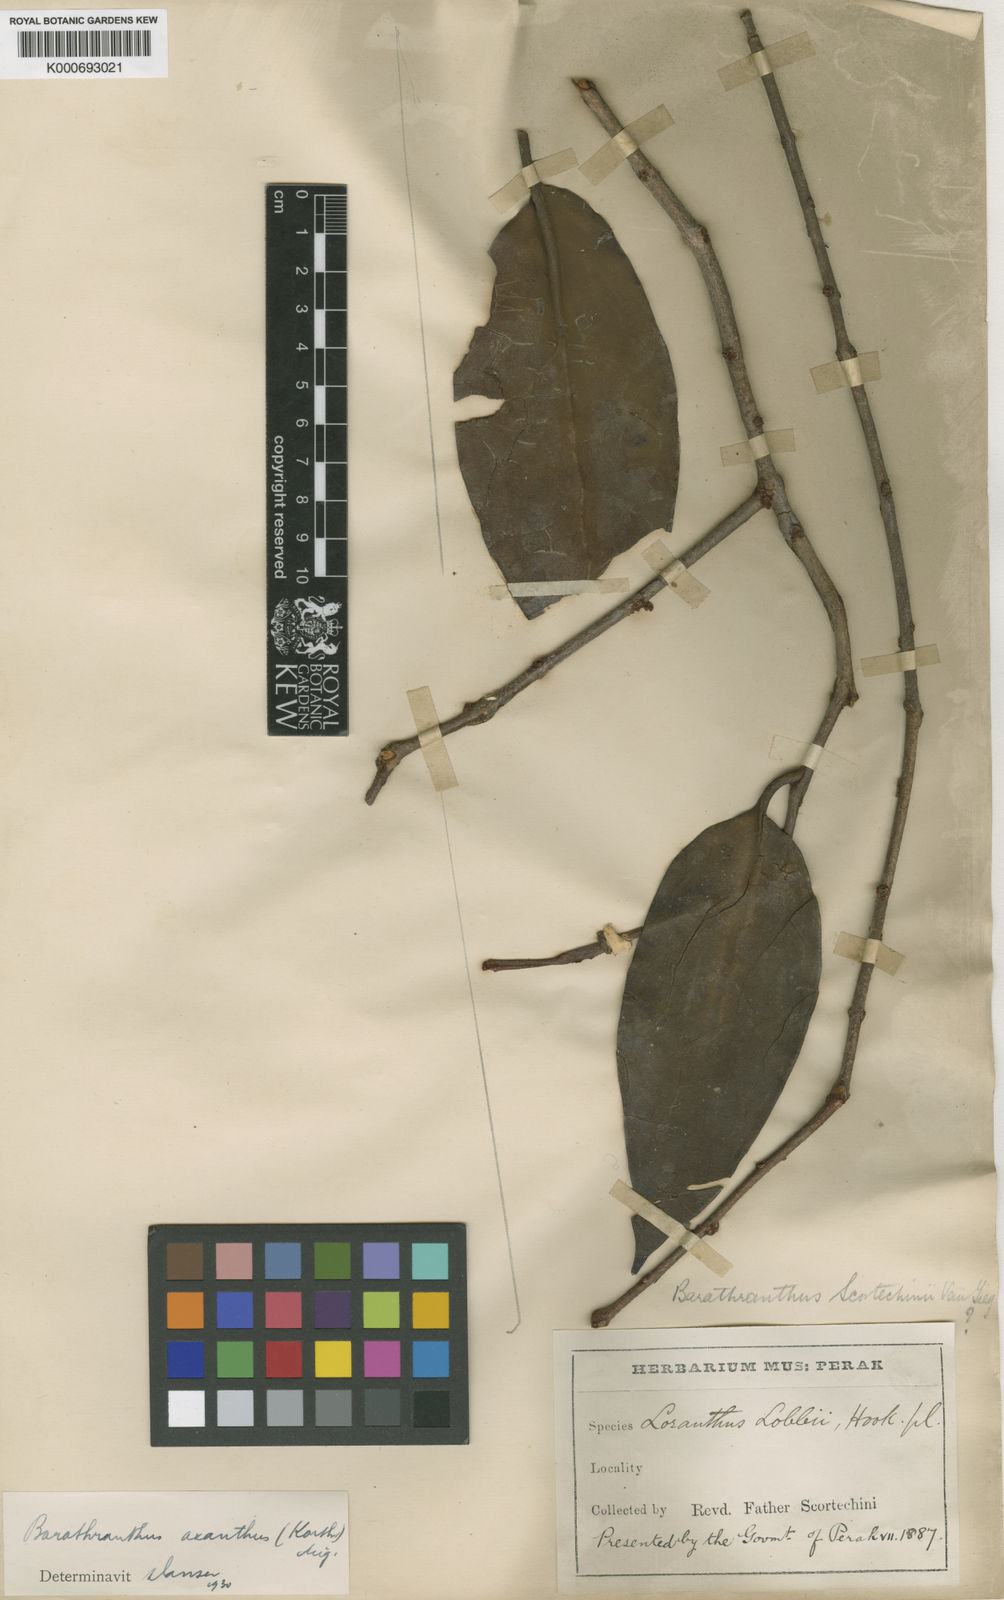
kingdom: Plantae
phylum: Tracheophyta
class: Magnoliopsida
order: Santalales
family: Loranthaceae
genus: Barathranthus
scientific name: Barathranthus axanthus
